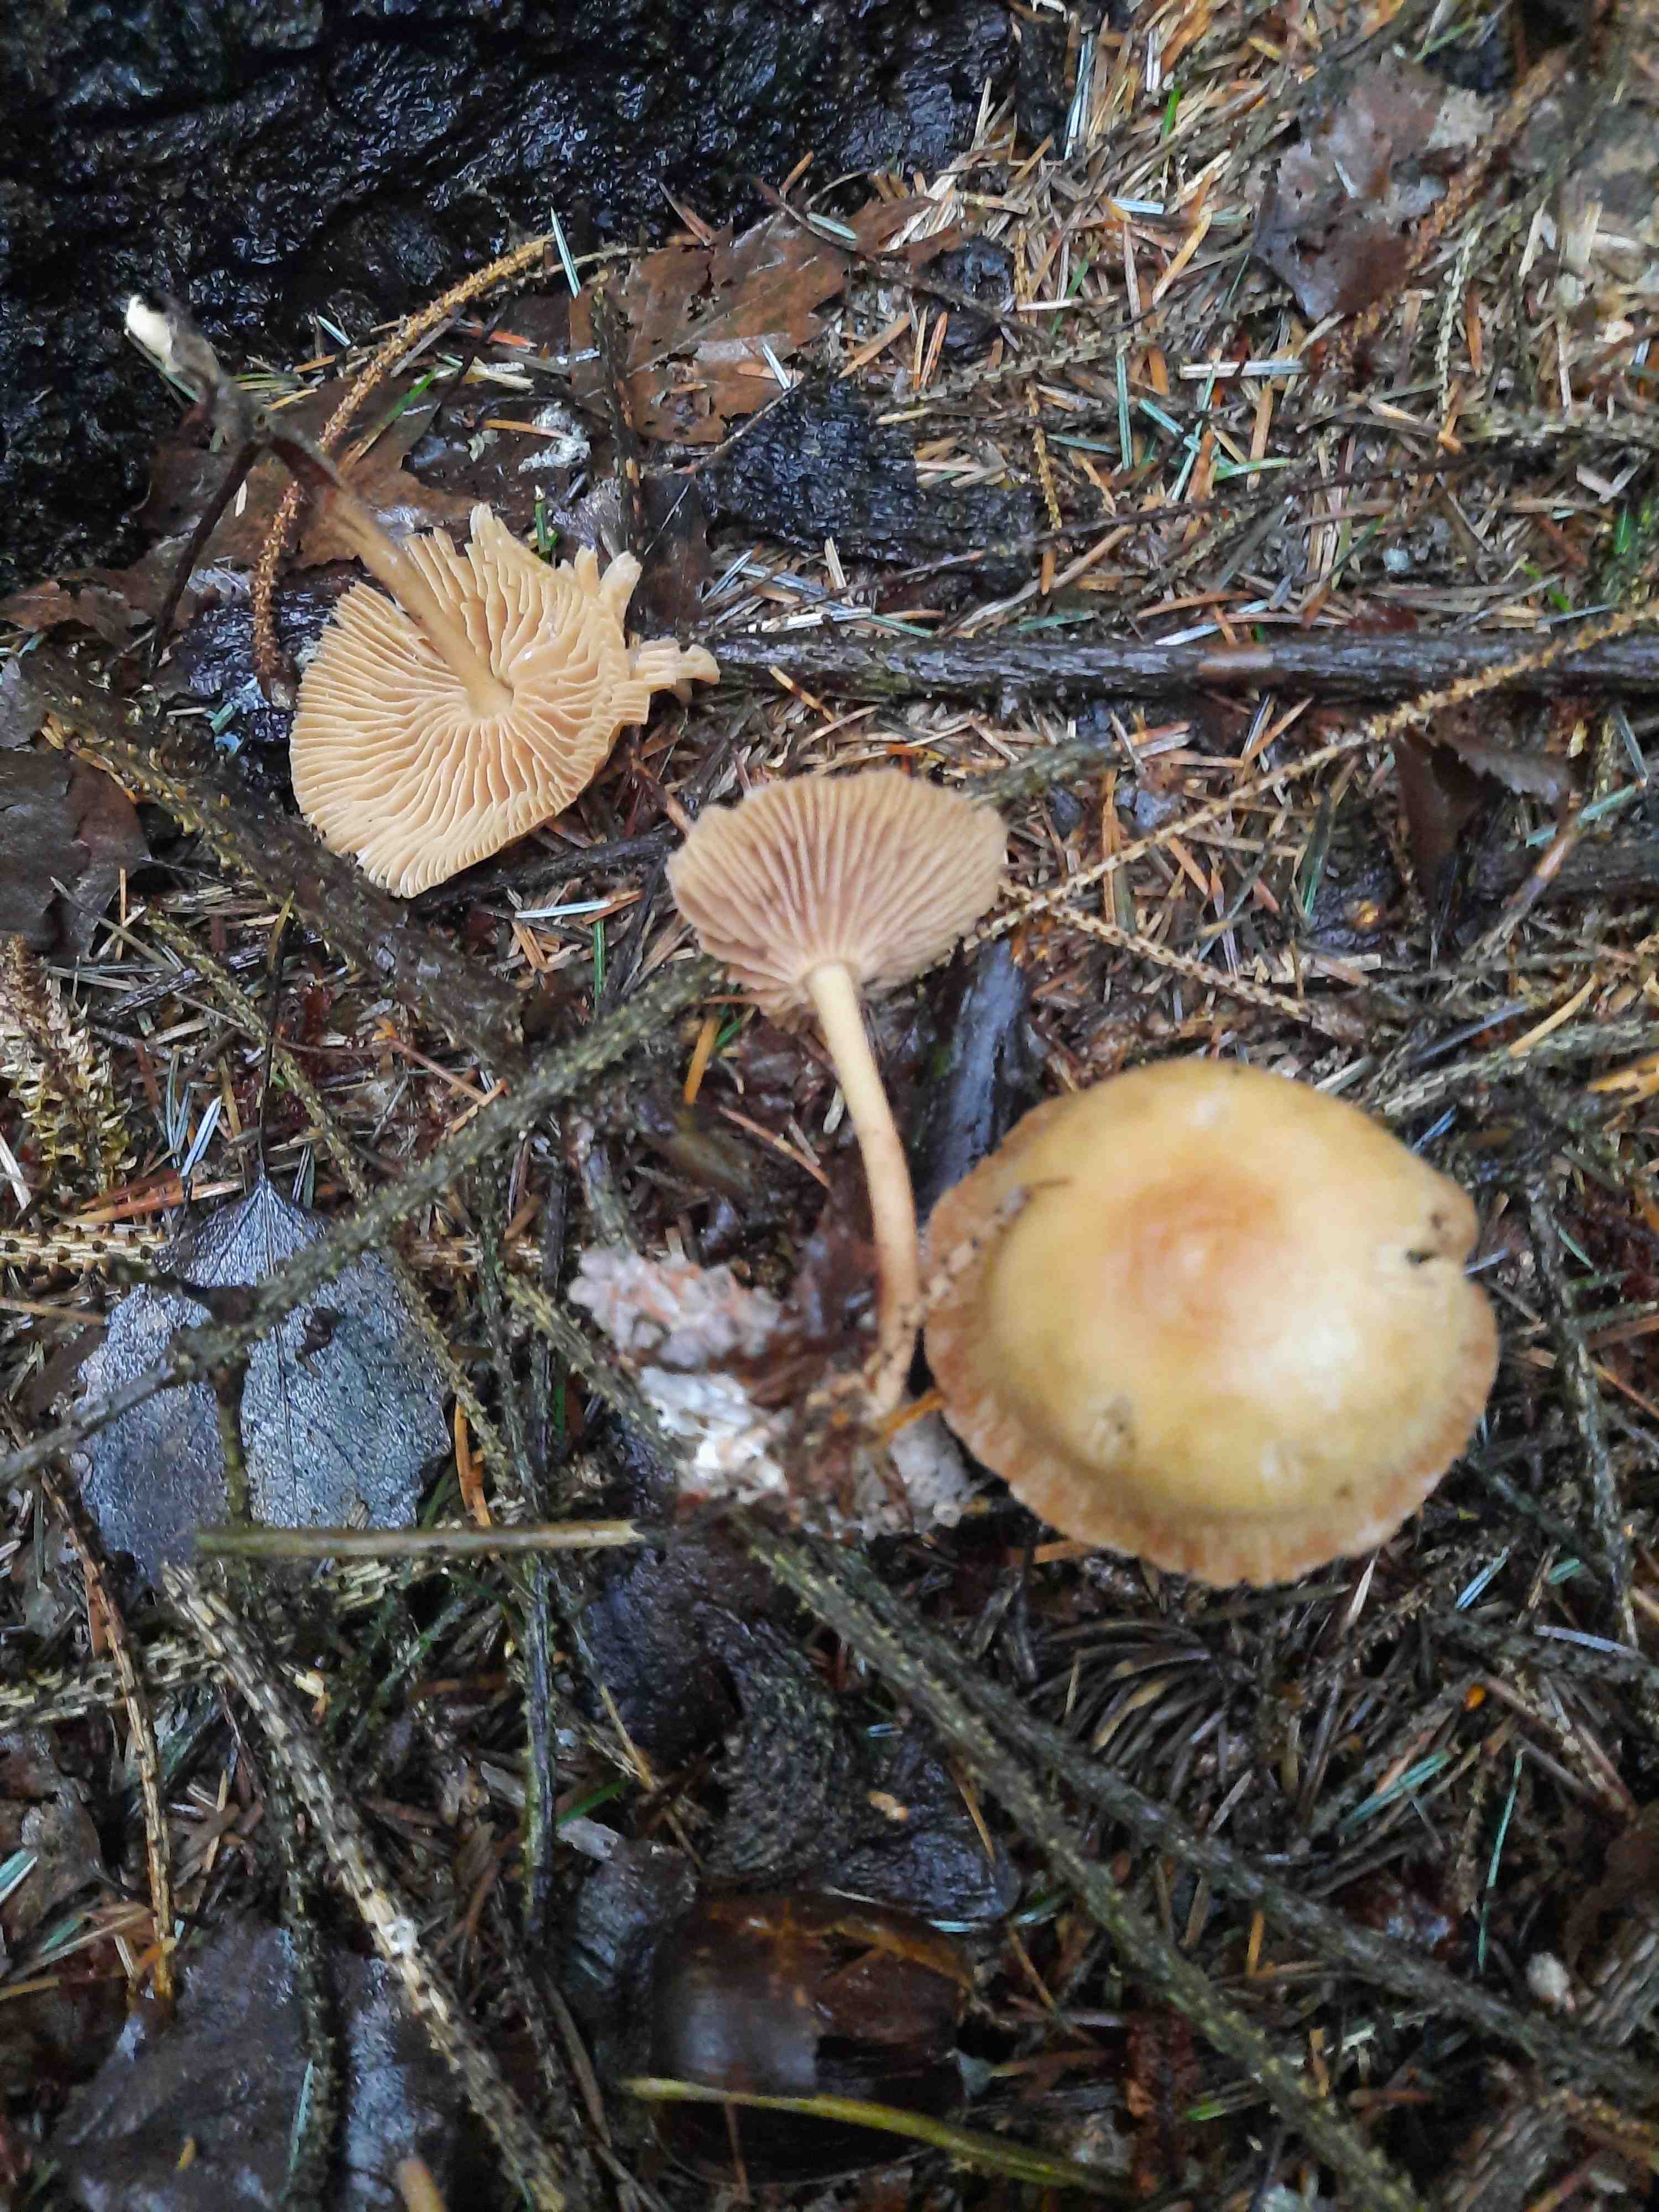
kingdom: Fungi
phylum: Basidiomycota
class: Agaricomycetes
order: Agaricales
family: Omphalotaceae
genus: Collybiopsis
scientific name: Collybiopsis peronata
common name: bestøvlet fladhat
